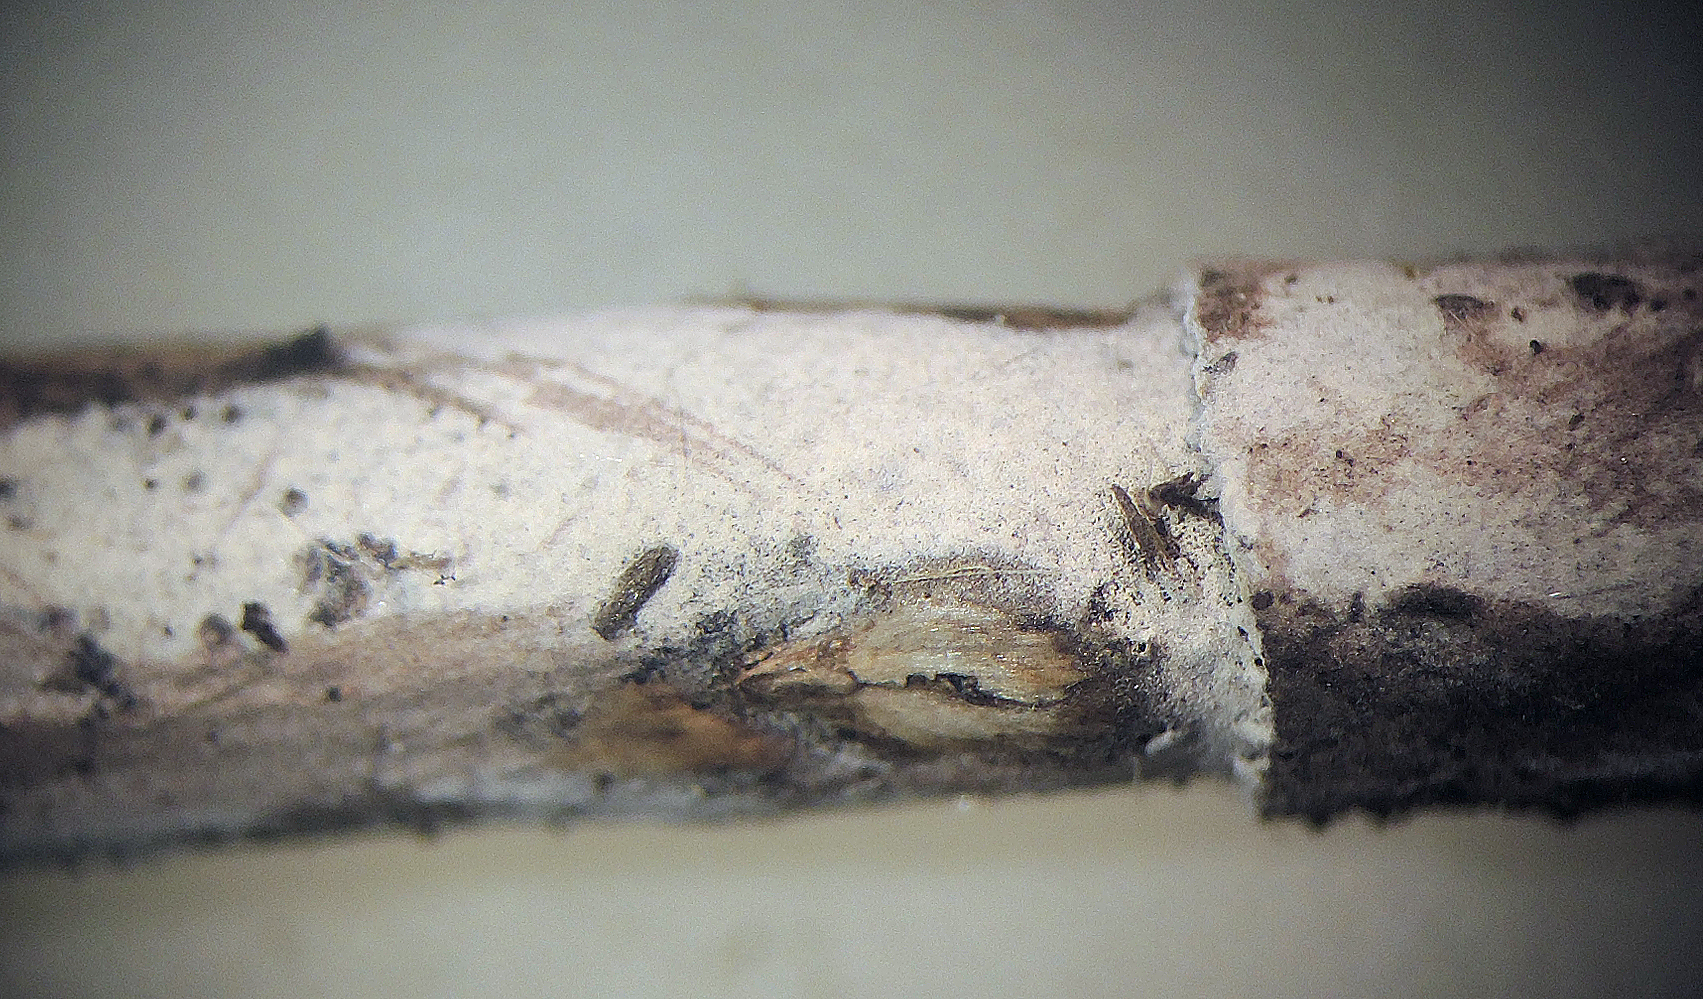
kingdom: Fungi
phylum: Basidiomycota
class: Agaricomycetes
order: Corticiales
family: Corticiaceae
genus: Leptocorticium
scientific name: Leptocorticium utribasidiatum
